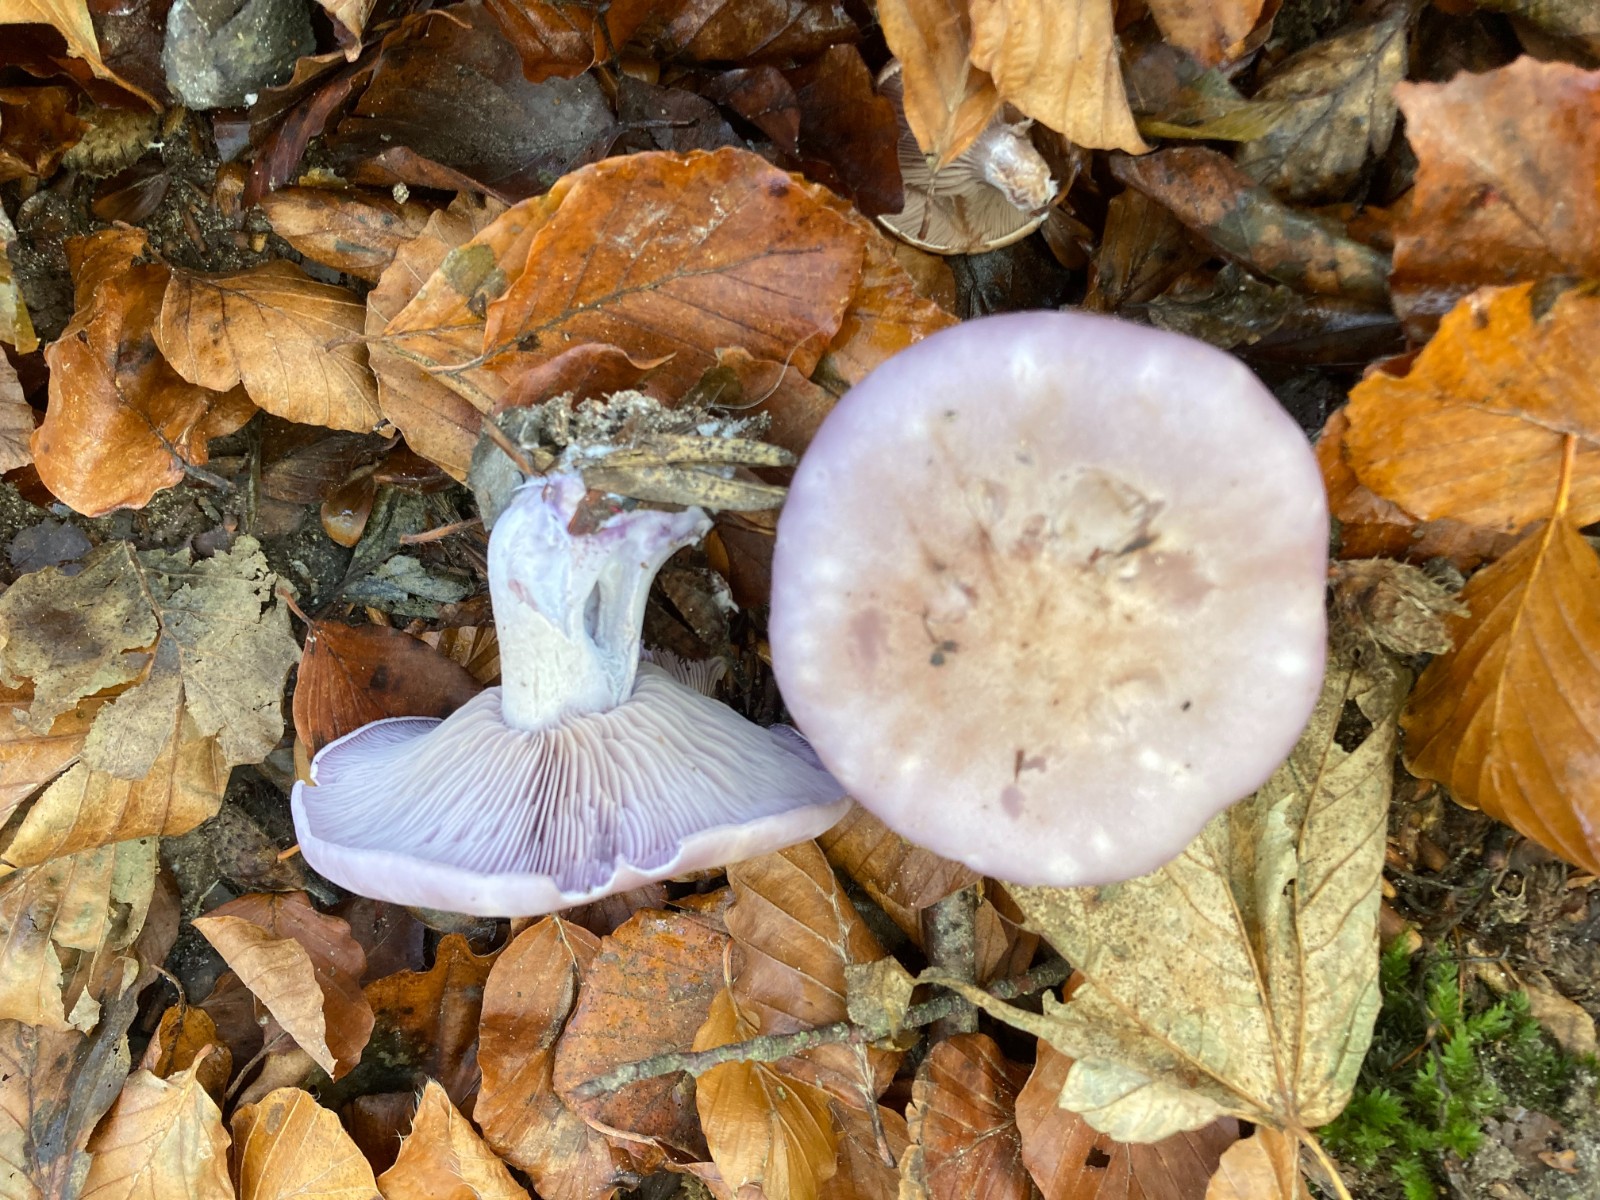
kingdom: Fungi
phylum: Basidiomycota
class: Agaricomycetes
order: Agaricales
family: Tricholomataceae
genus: Lepista
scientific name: Lepista nuda
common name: violet hekseringshat
